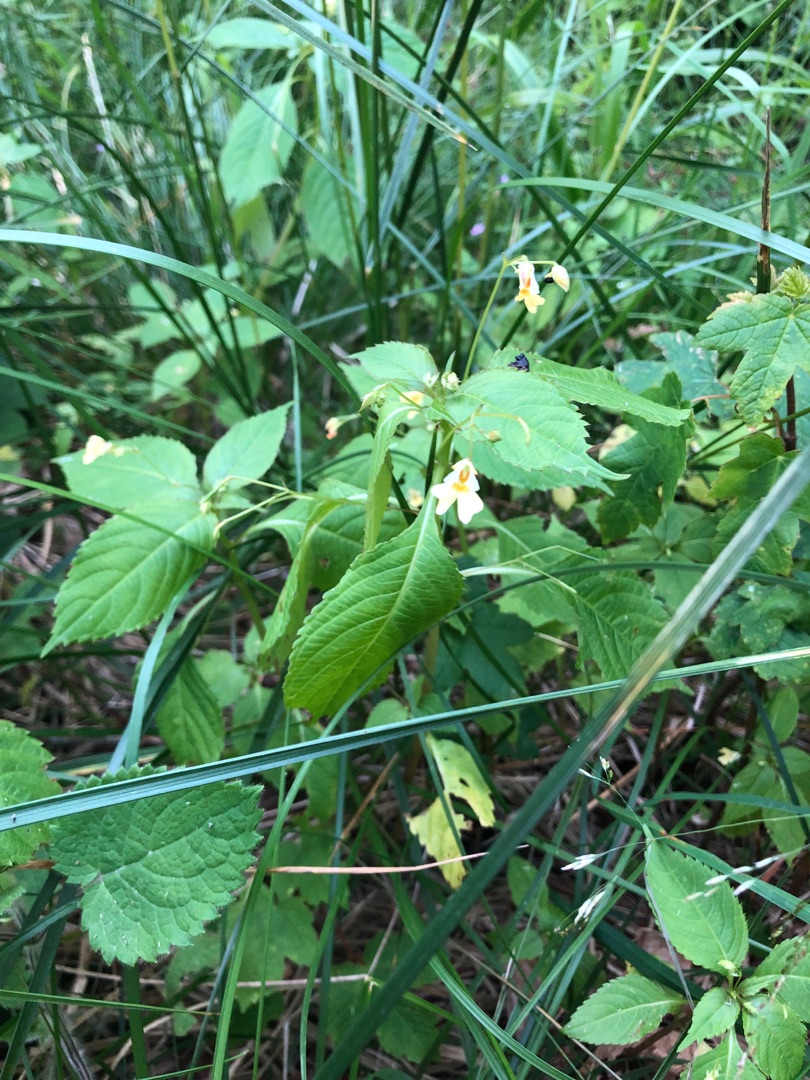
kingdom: Plantae
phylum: Tracheophyta
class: Magnoliopsida
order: Ericales
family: Balsaminaceae
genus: Impatiens
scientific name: Impatiens parviflora
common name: Småblomstret balsamin
